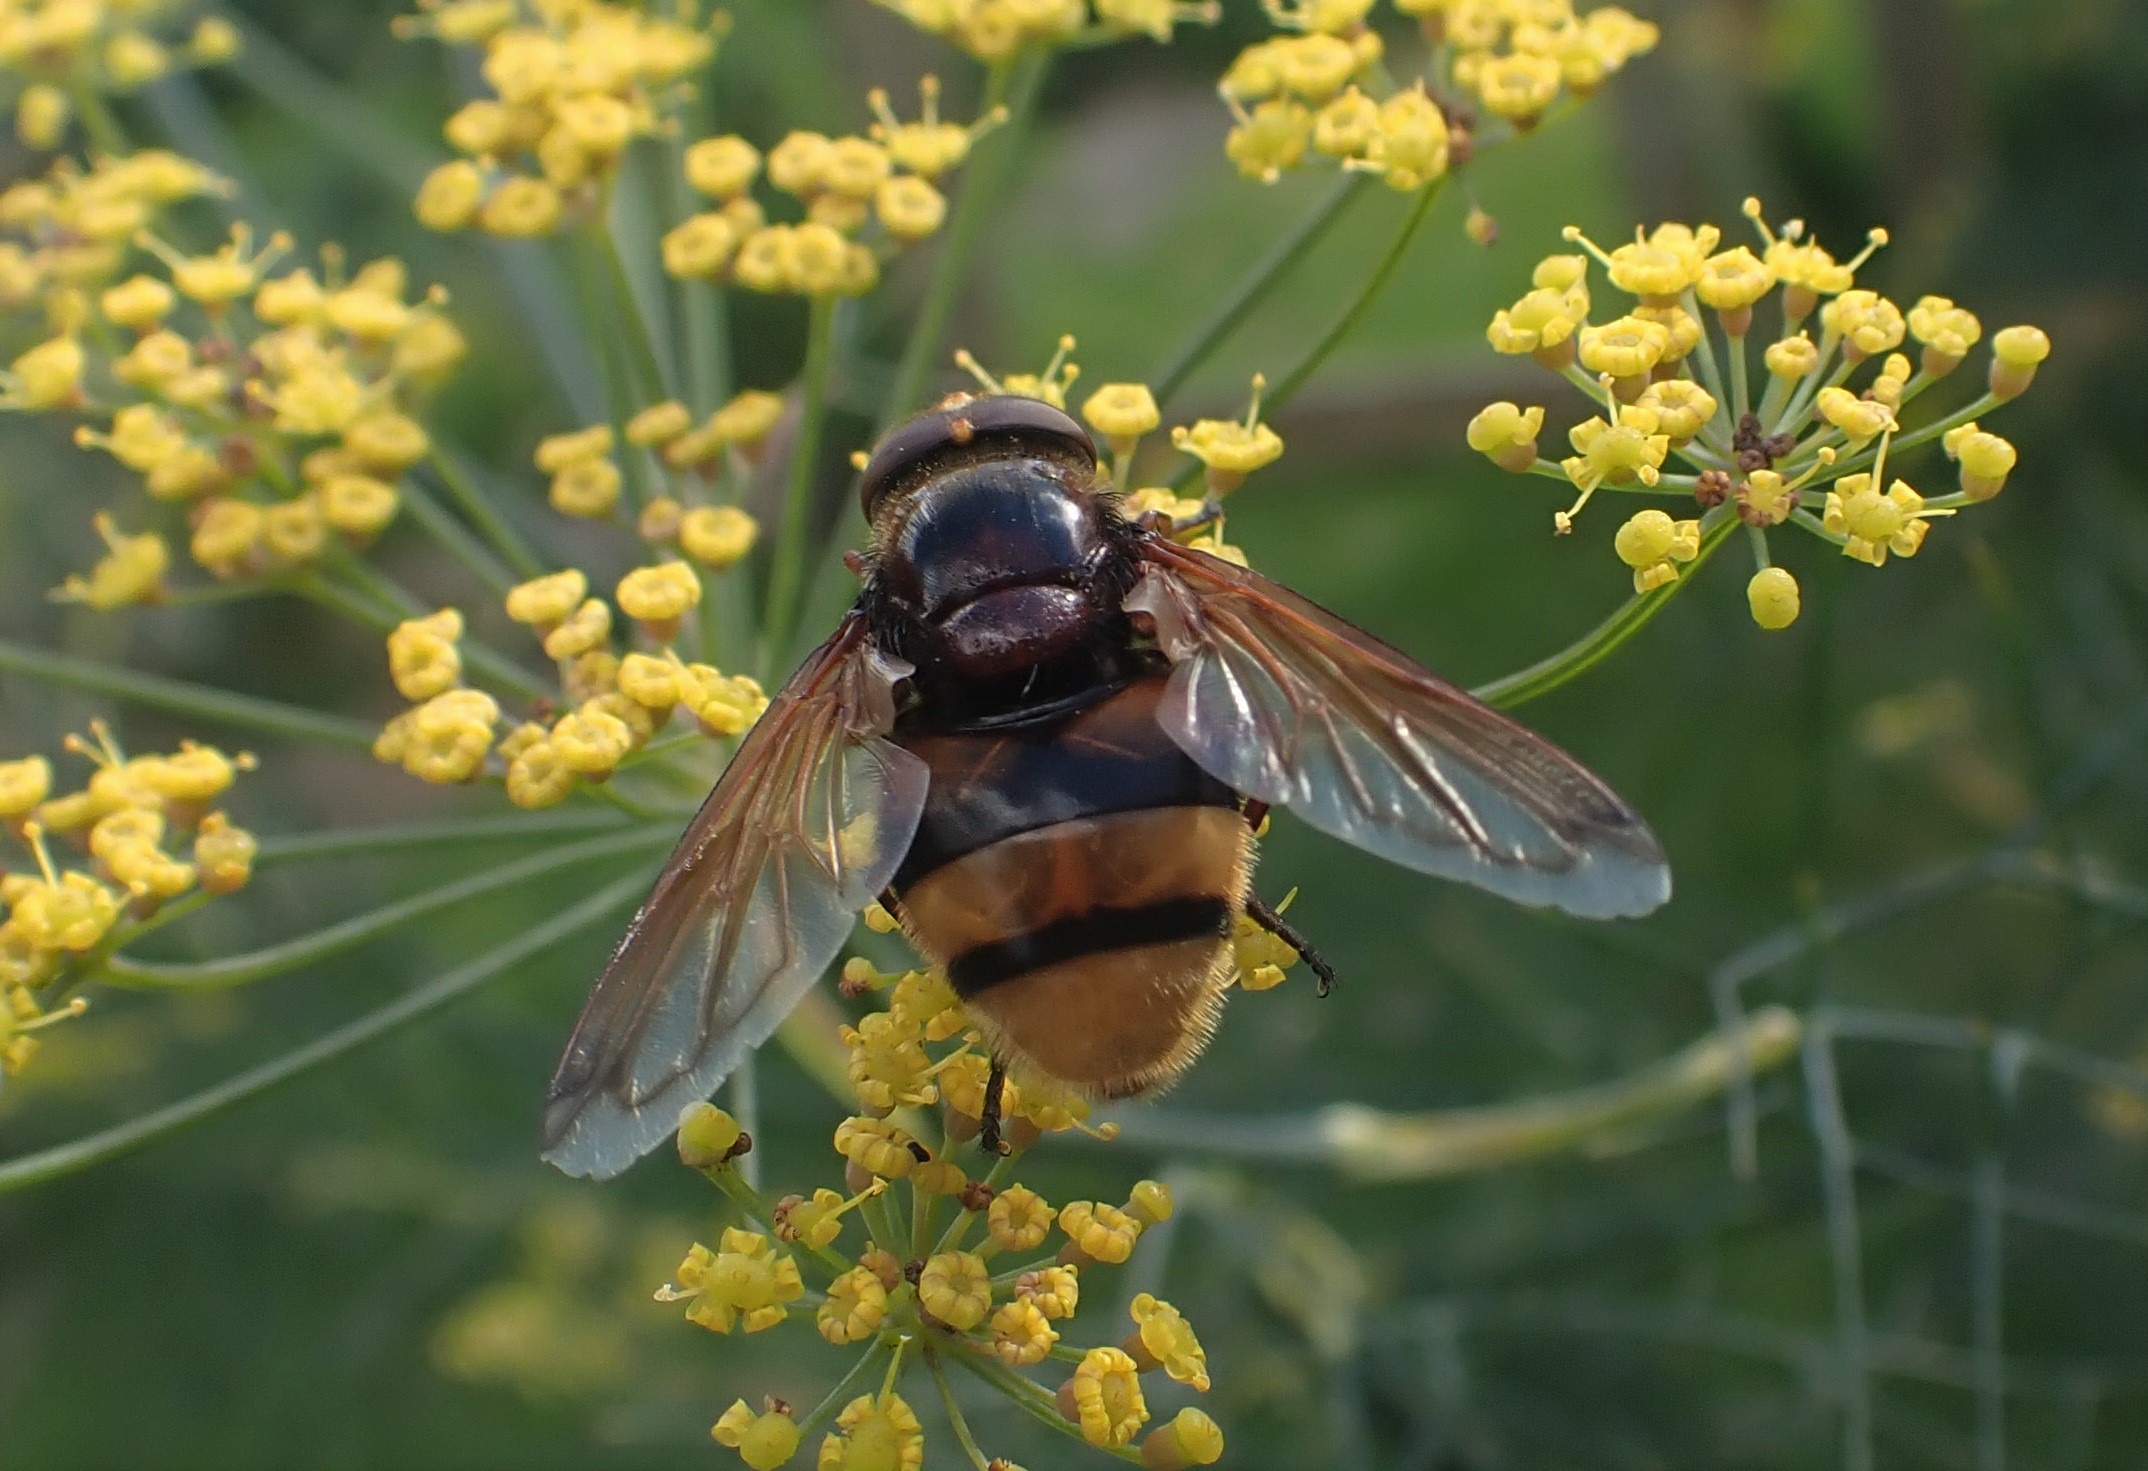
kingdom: Animalia
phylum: Arthropoda
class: Insecta
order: Diptera
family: Syrphidae
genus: Volucella
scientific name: Volucella zonaria
